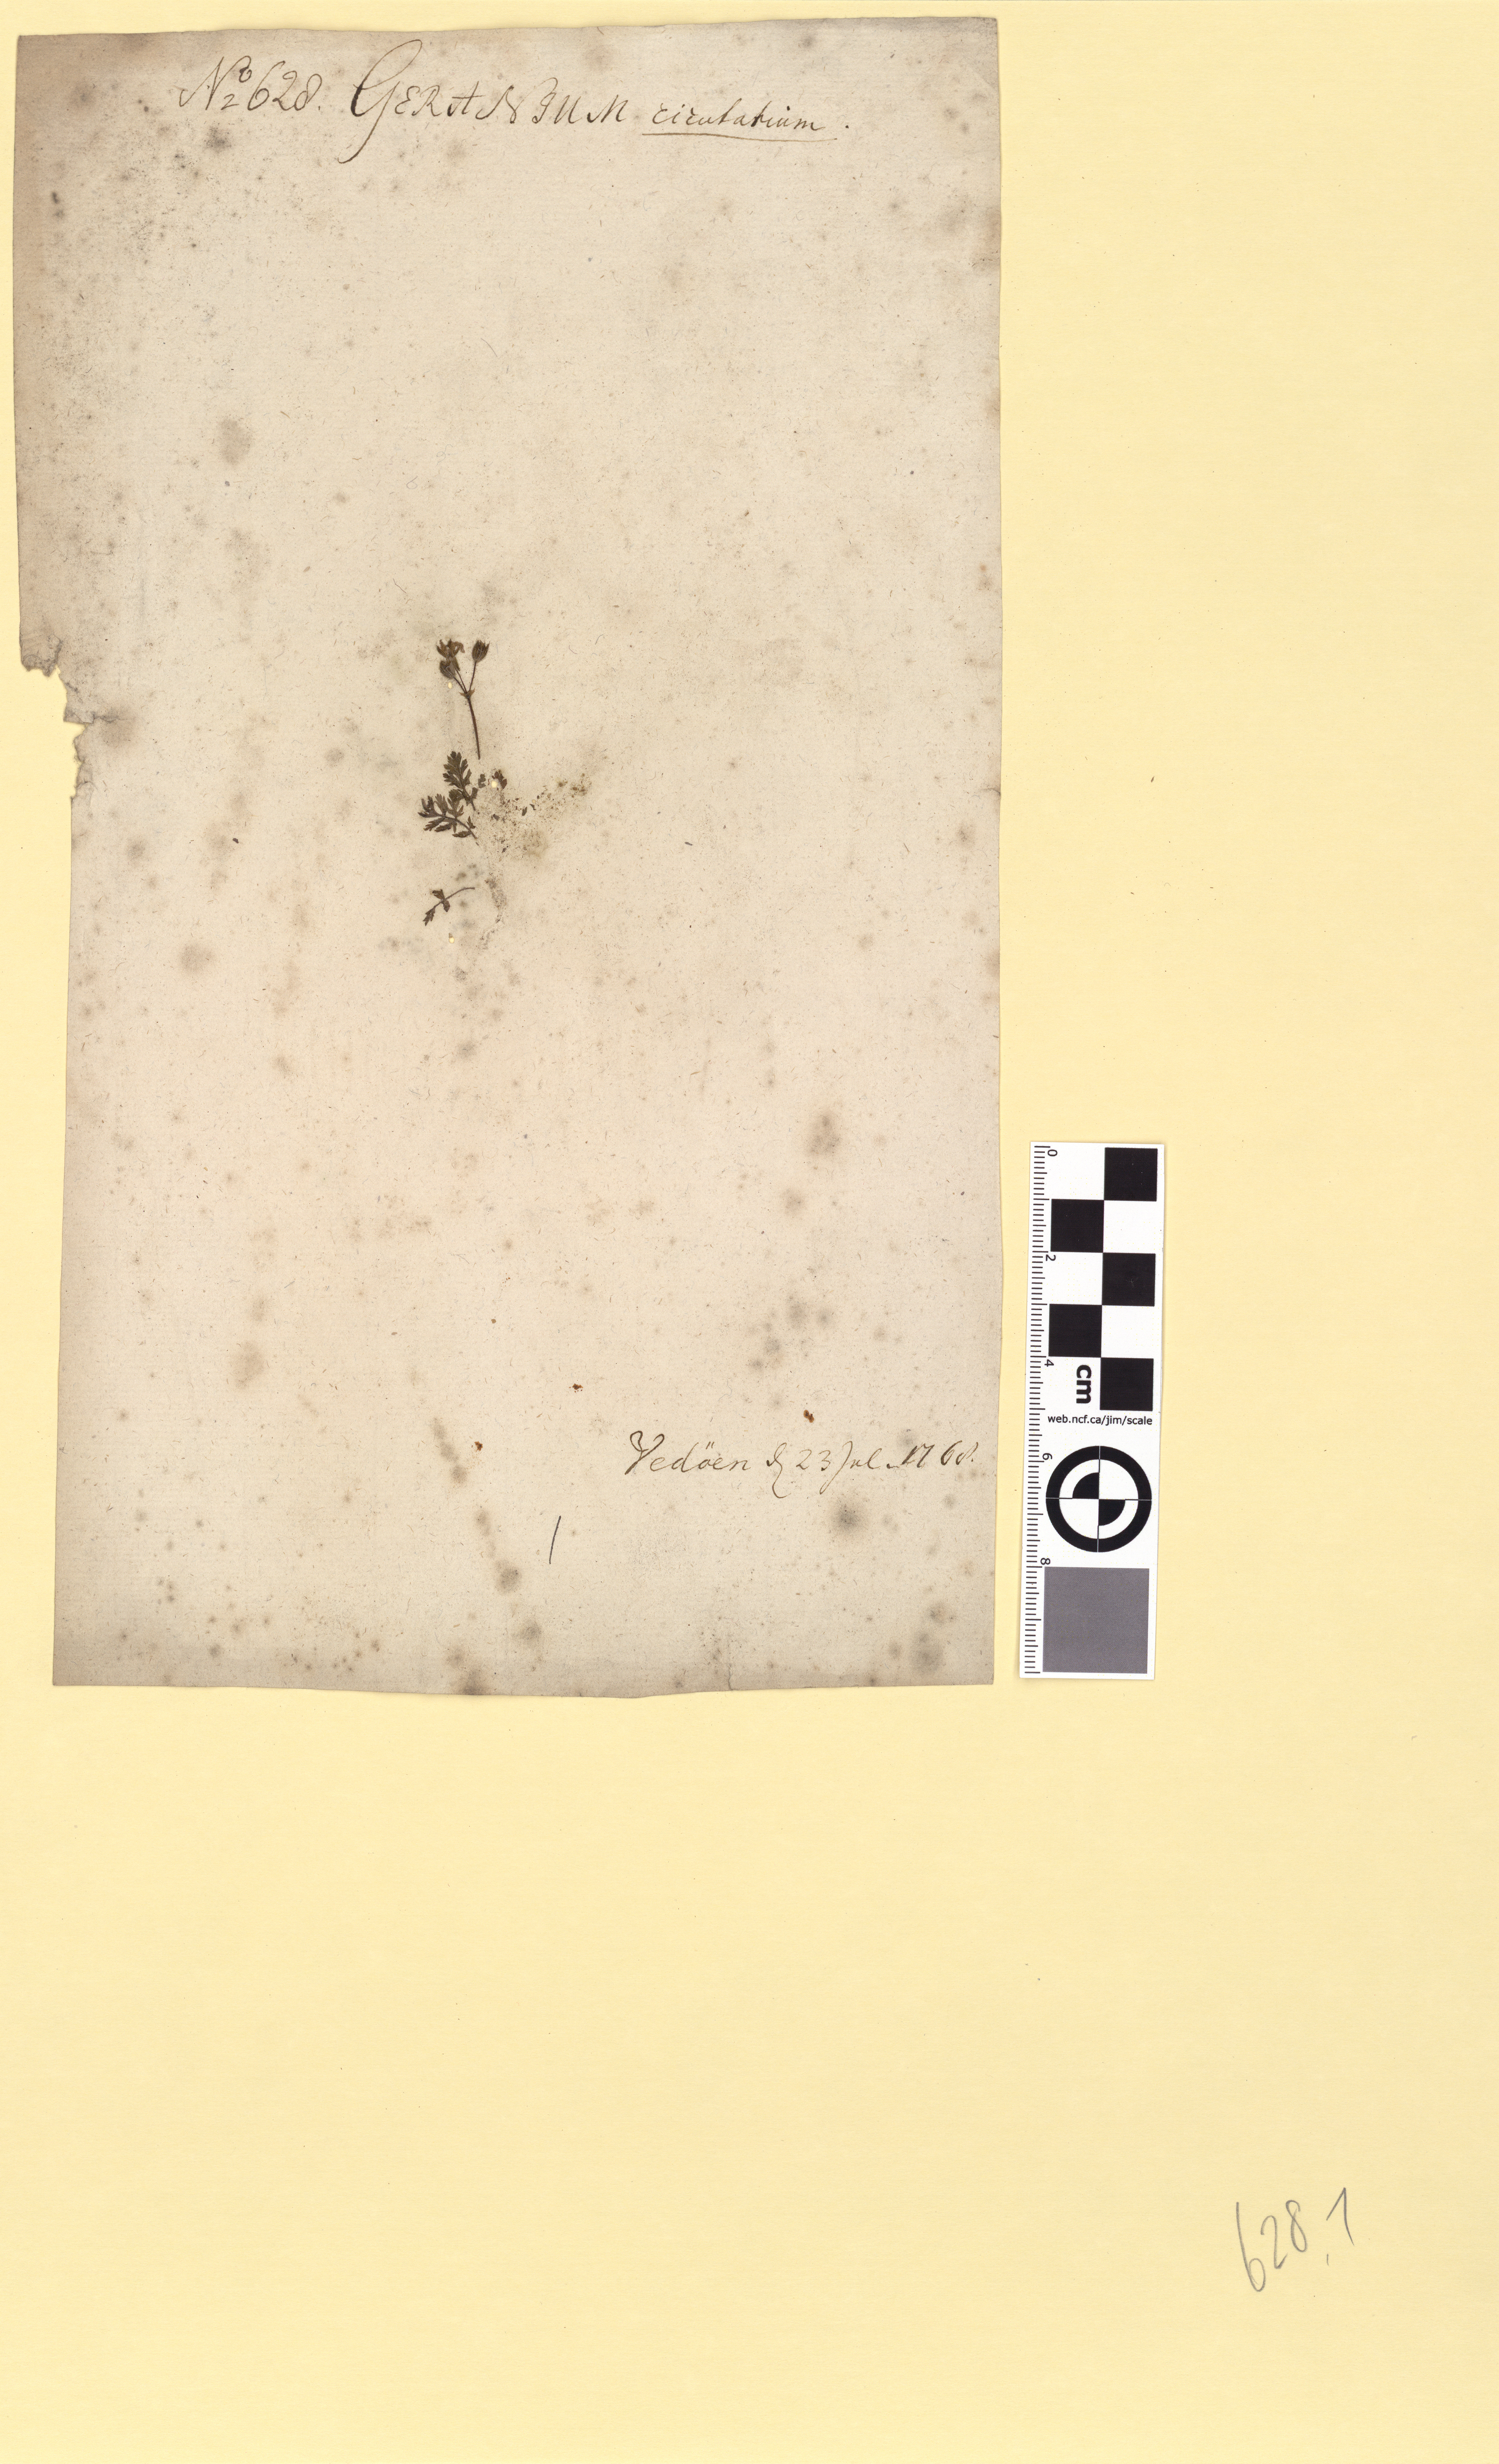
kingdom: Plantae
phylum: Tracheophyta
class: Magnoliopsida
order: Geraniales
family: Geraniaceae
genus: Erodium
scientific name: Erodium cicutarium
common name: Common stork's-bill
